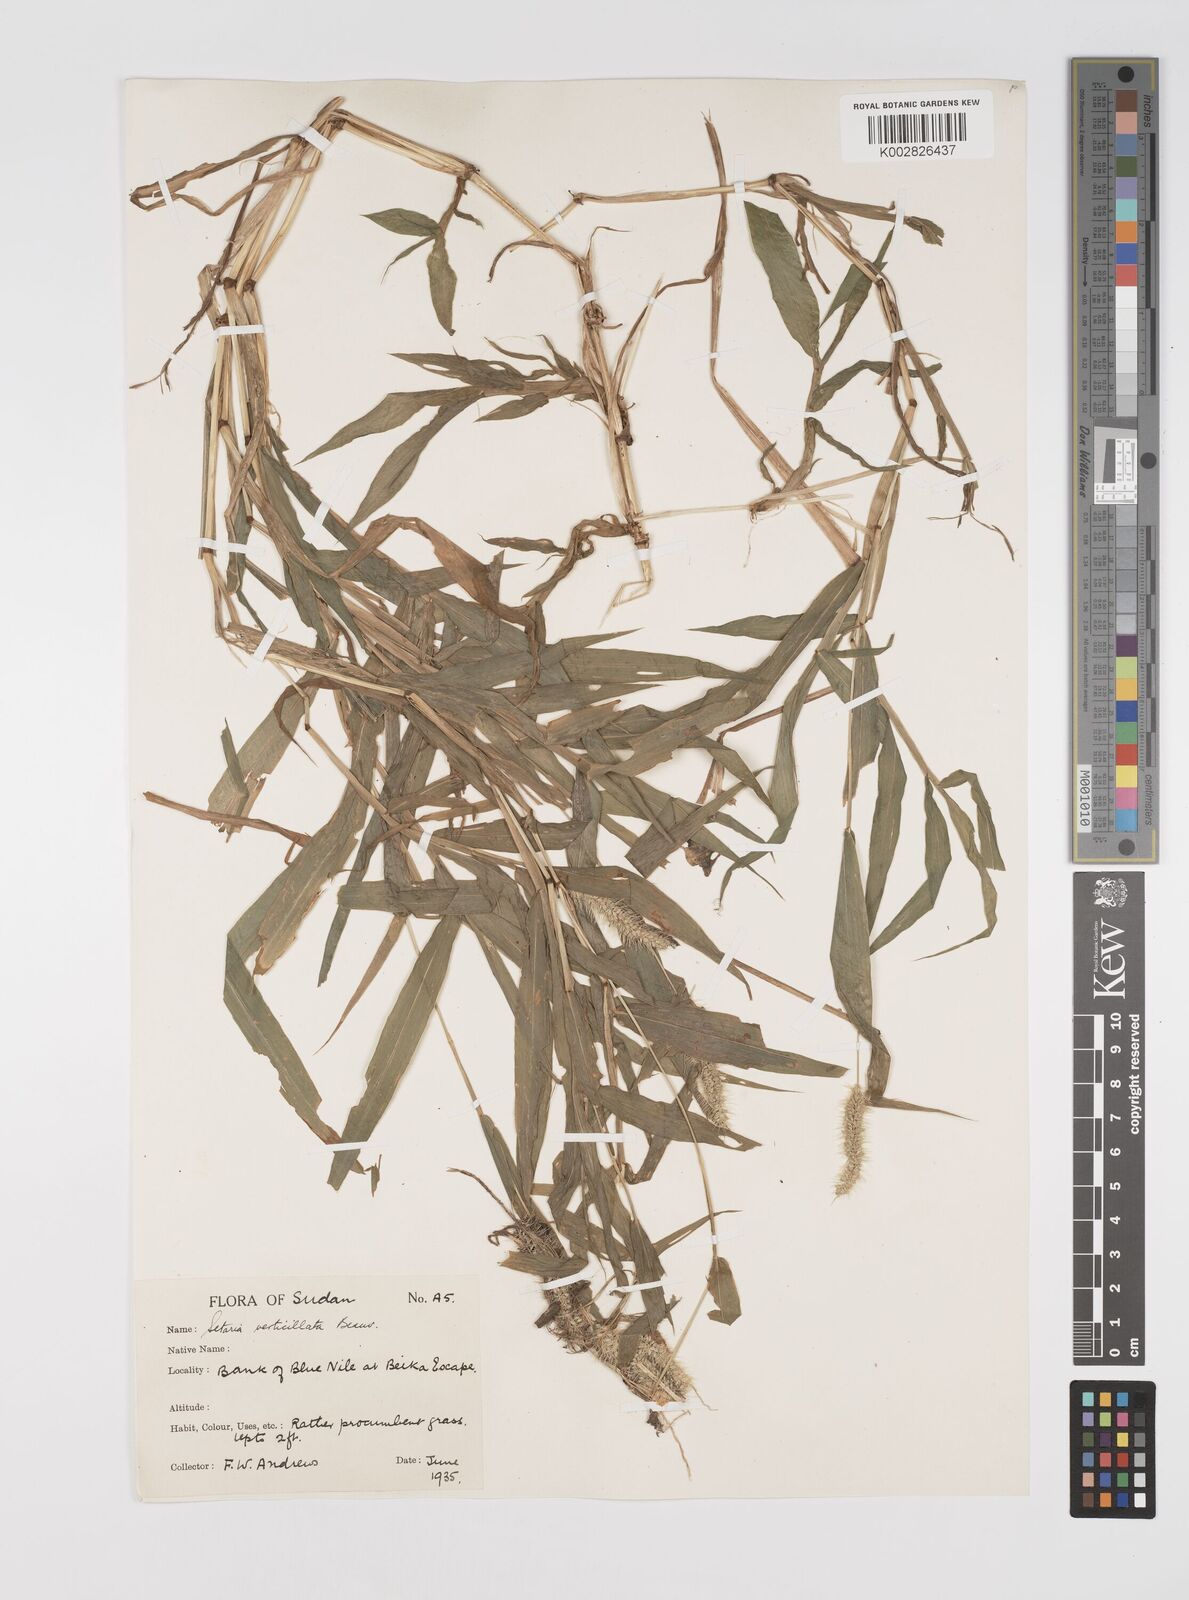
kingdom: Plantae
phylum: Tracheophyta
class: Liliopsida
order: Poales
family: Poaceae
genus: Setaria
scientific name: Setaria verticillata
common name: Hooked bristlegrass
